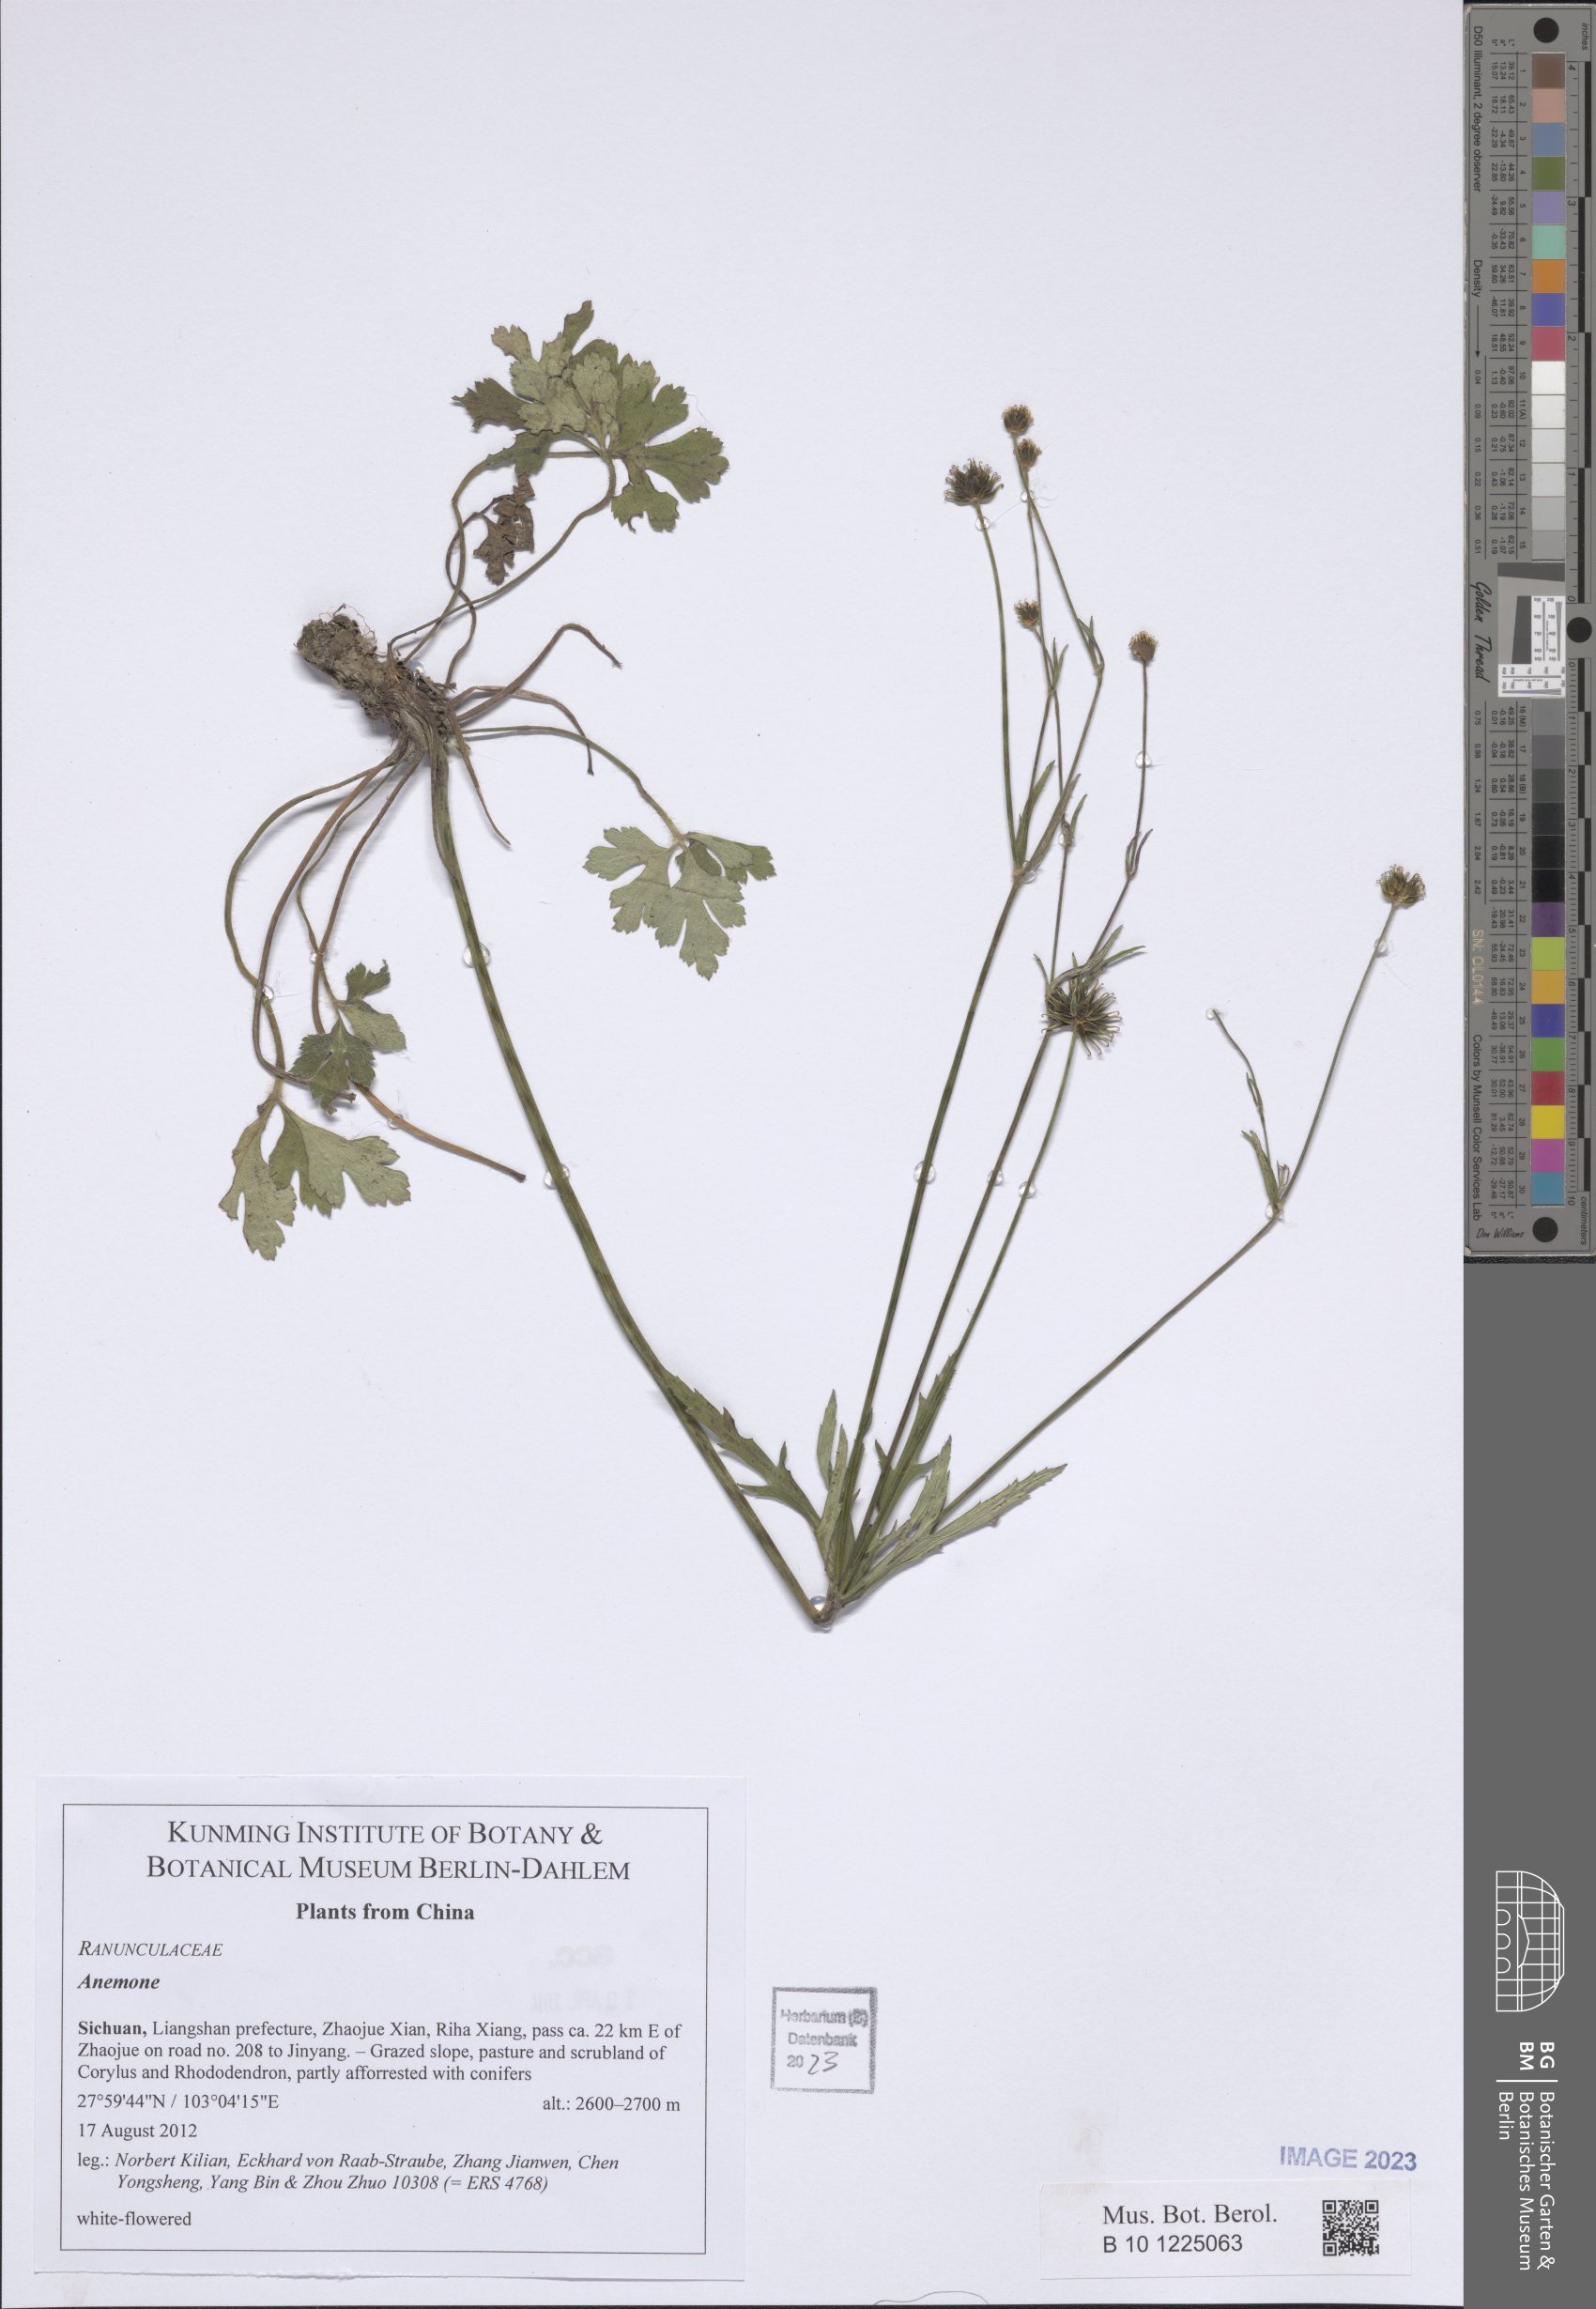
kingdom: Plantae
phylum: Tracheophyta
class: Magnoliopsida
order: Ranunculales
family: Ranunculaceae
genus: Anemone
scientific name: Anemone
